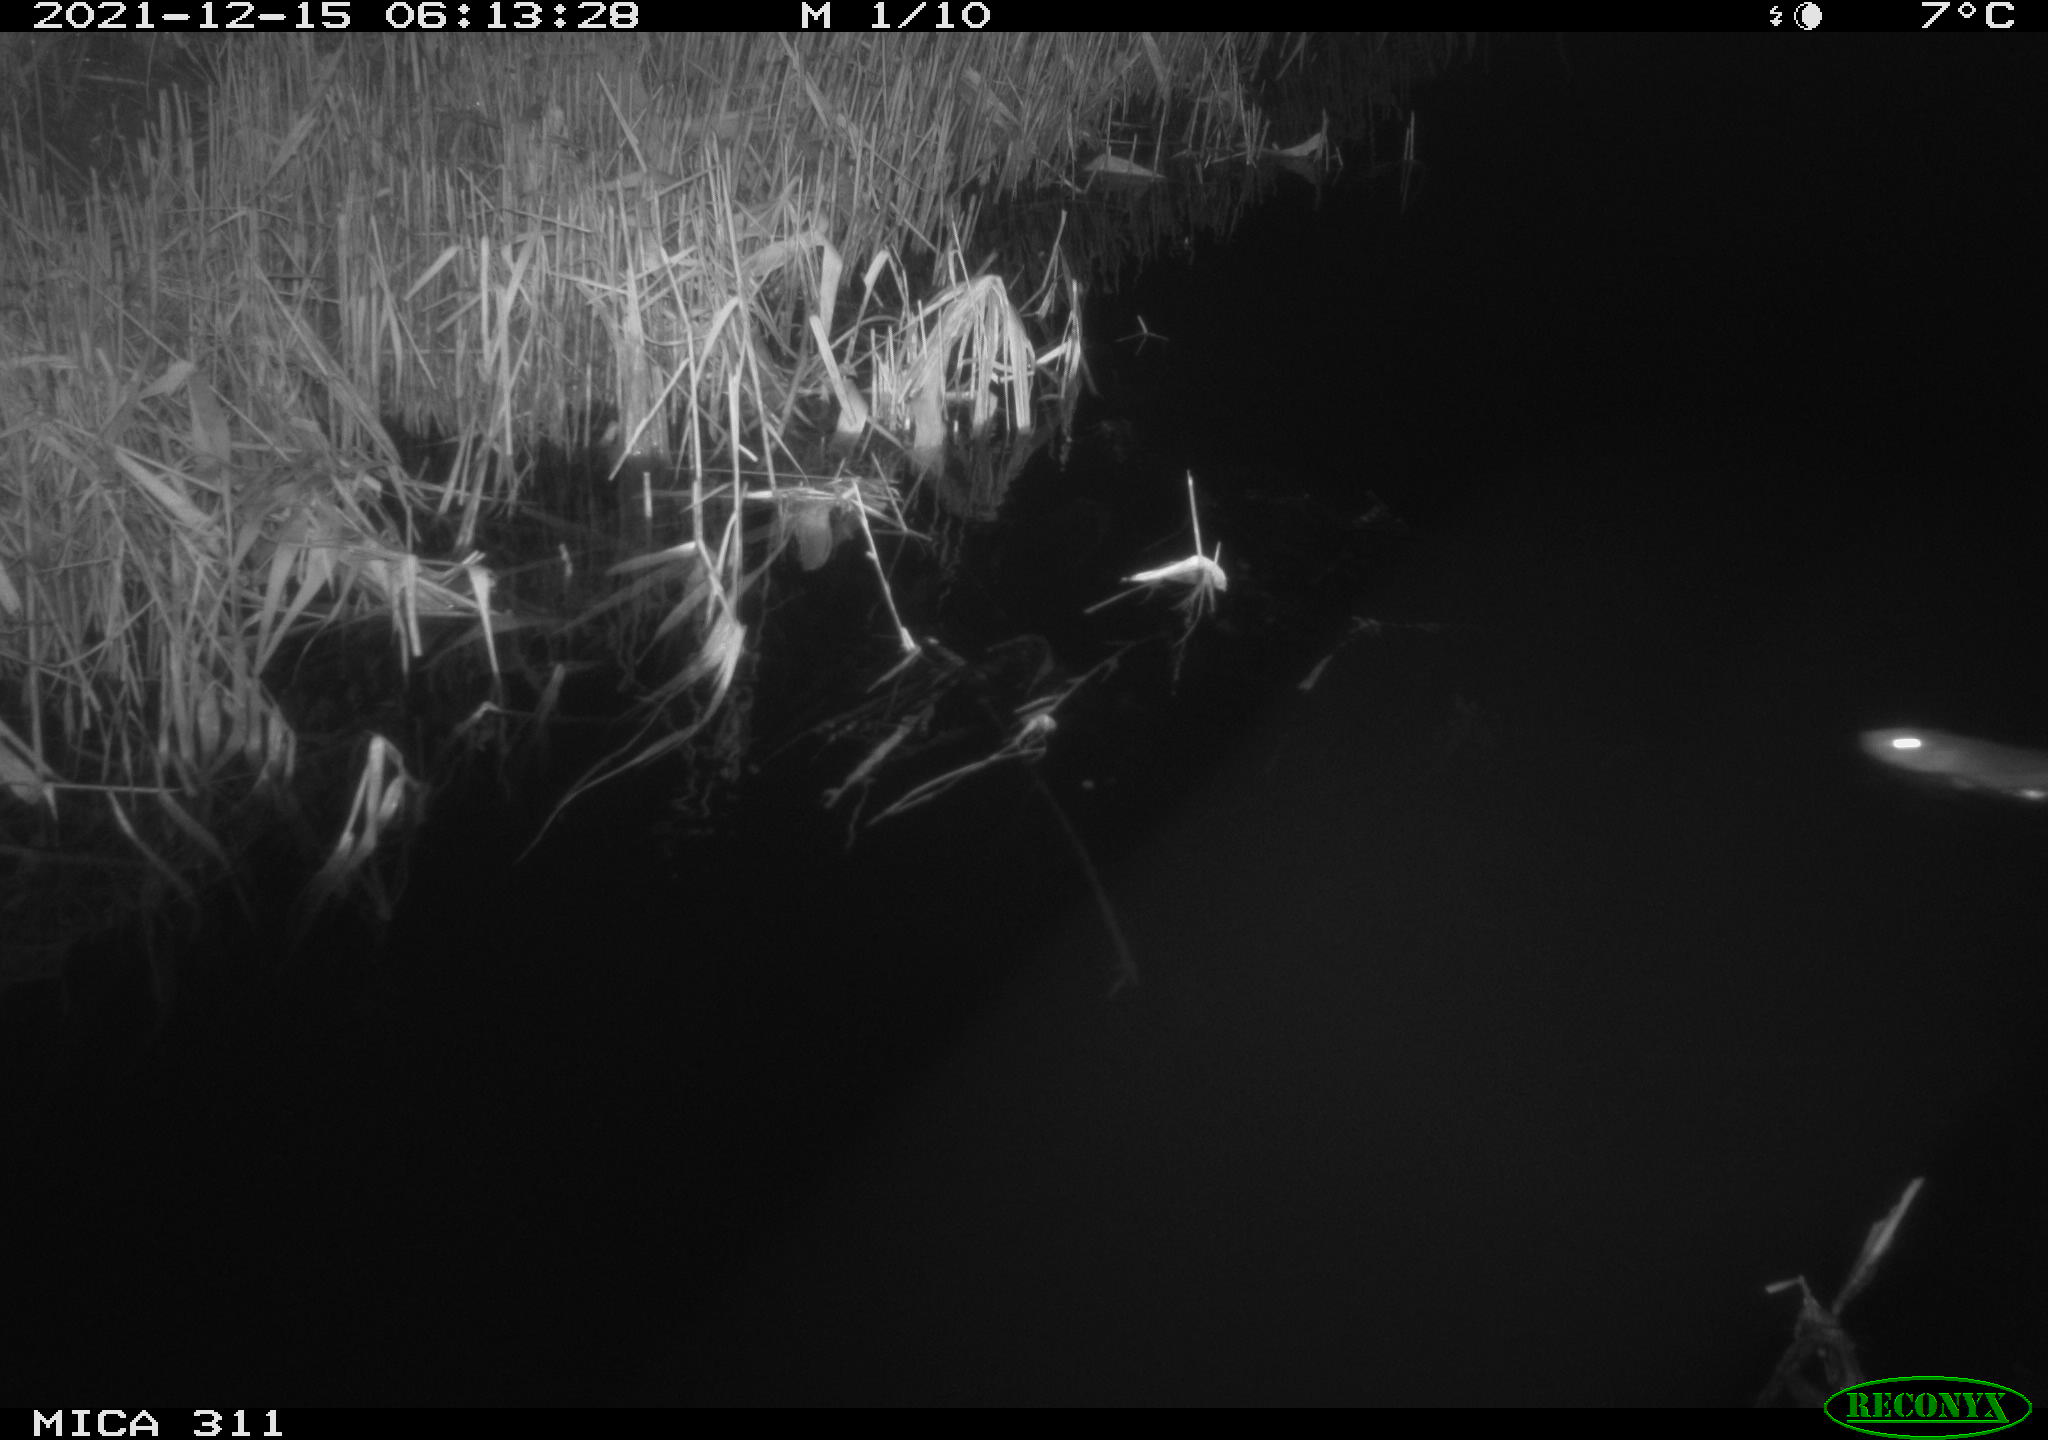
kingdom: Animalia
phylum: Chordata
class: Mammalia
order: Rodentia
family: Muridae
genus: Rattus
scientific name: Rattus norvegicus
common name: Brown rat
